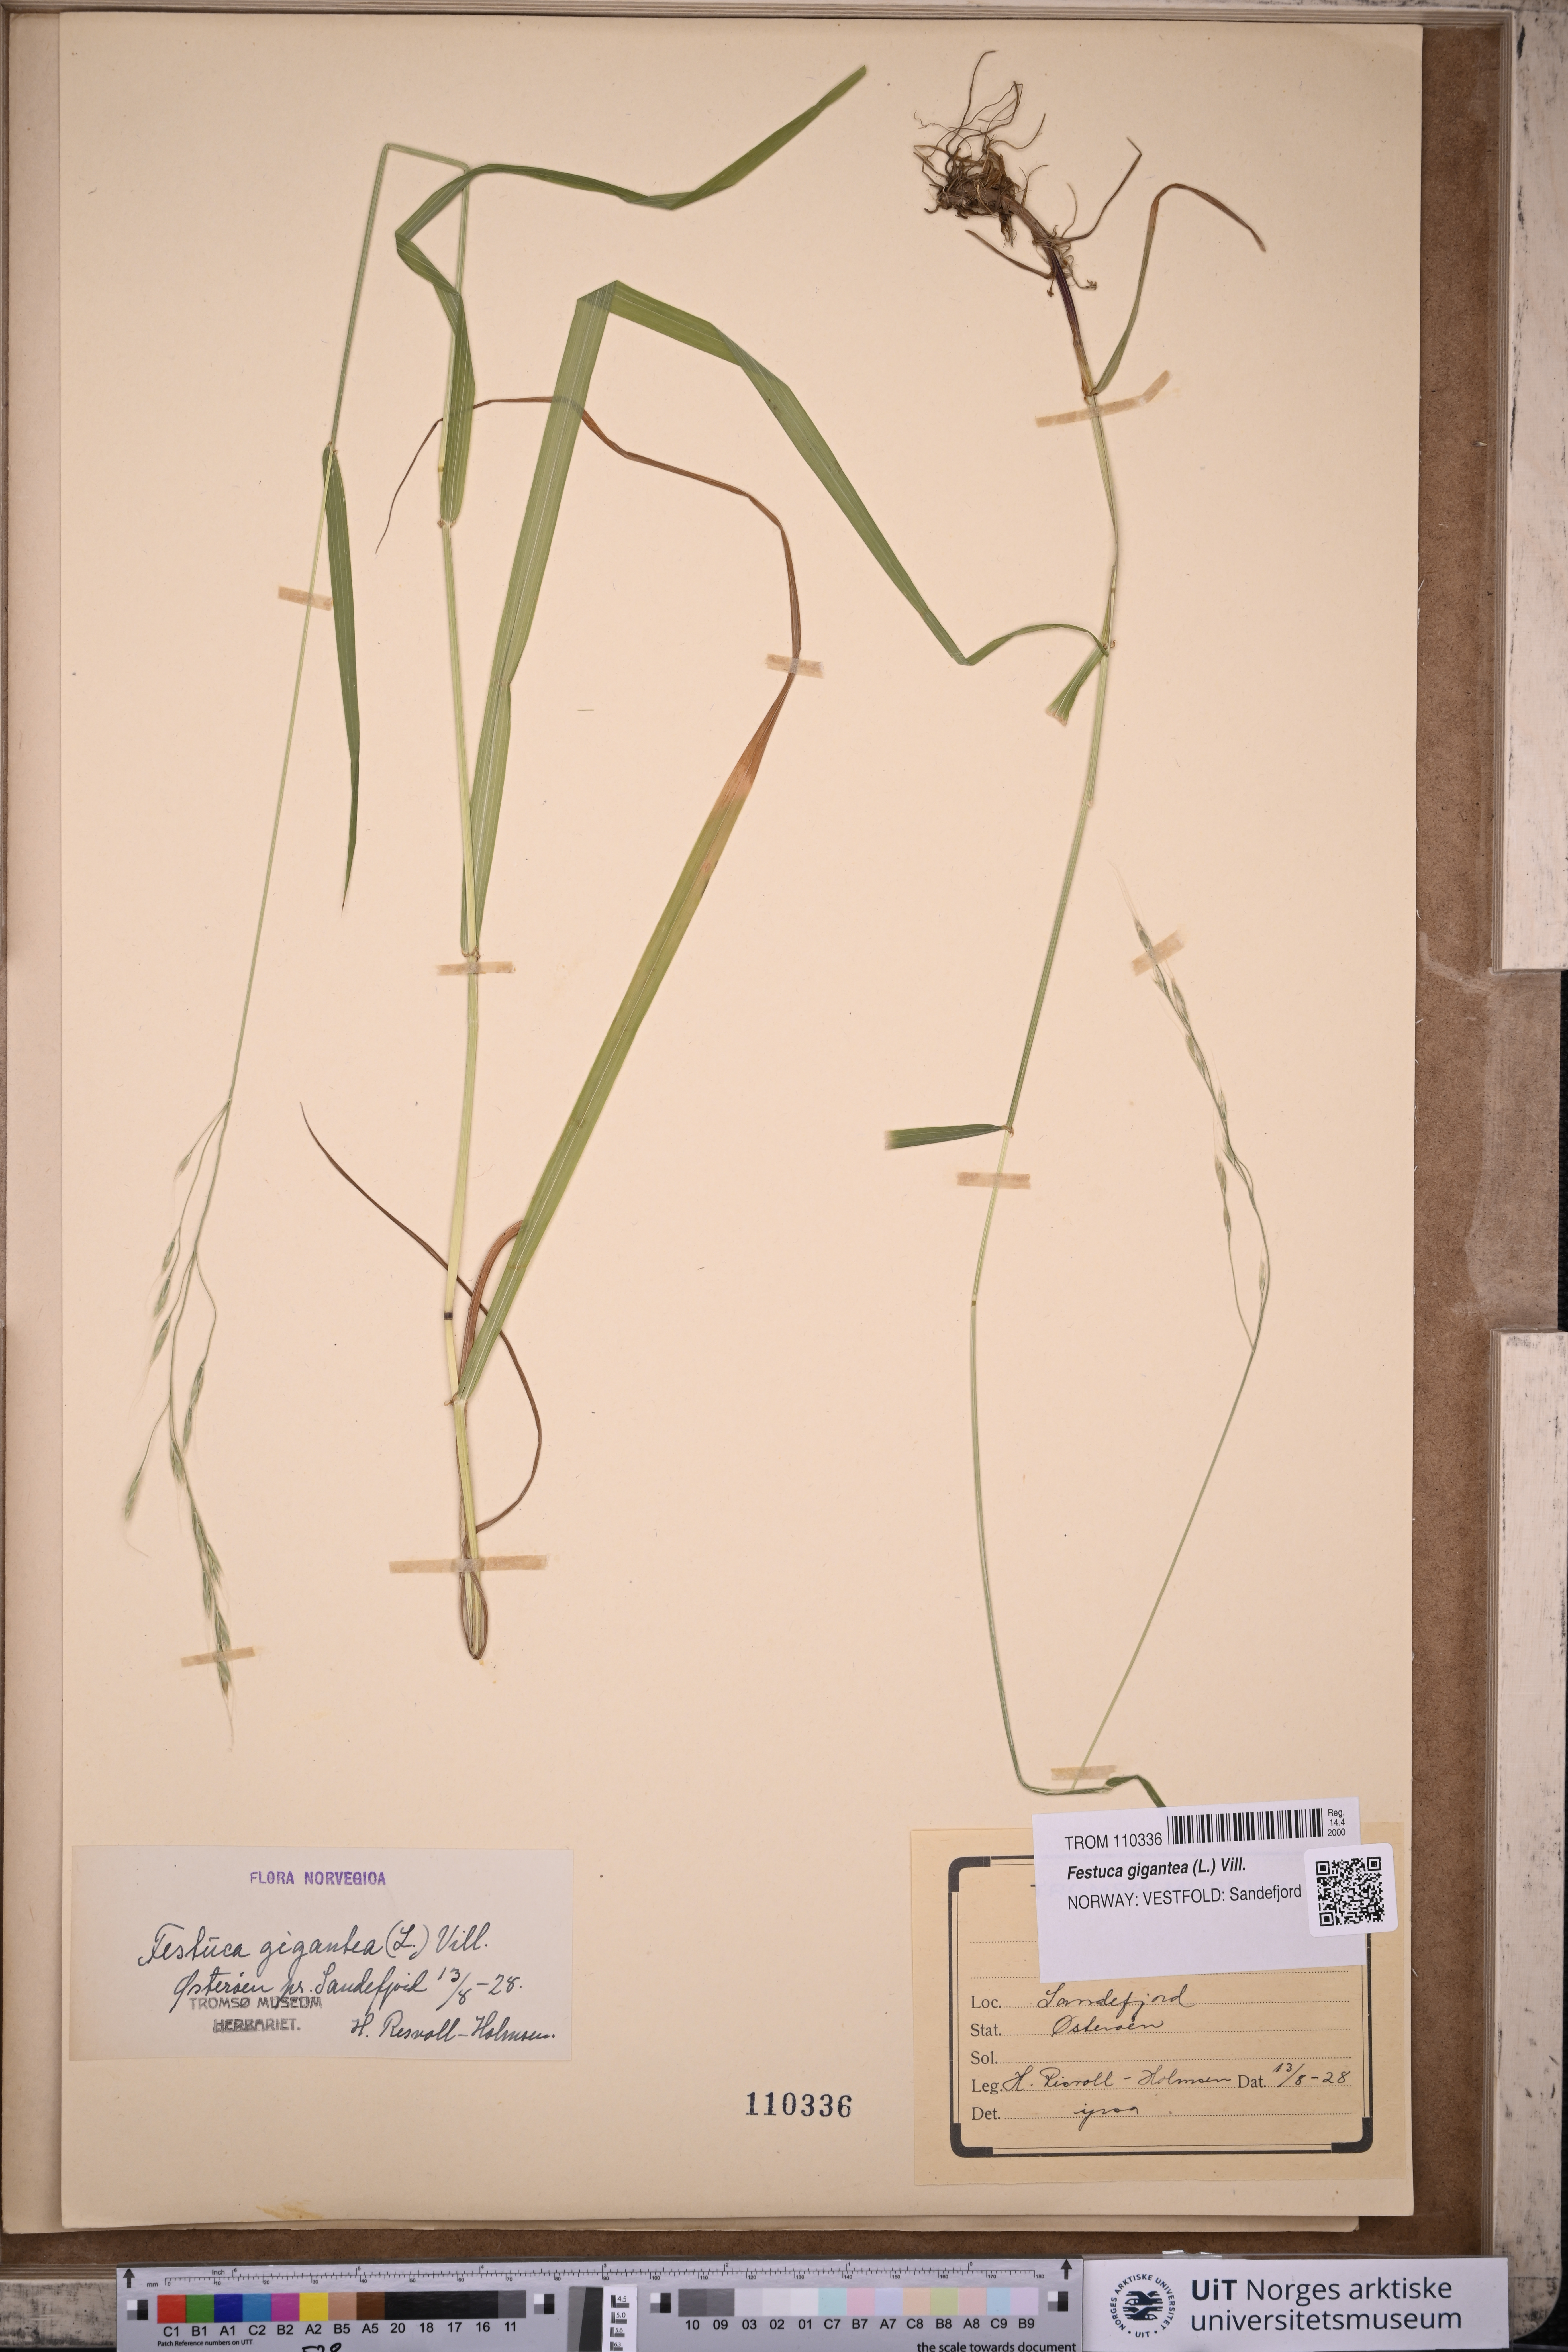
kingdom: Plantae
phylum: Tracheophyta
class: Liliopsida
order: Poales
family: Poaceae
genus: Lolium
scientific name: Lolium giganteum
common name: Giant fescue
